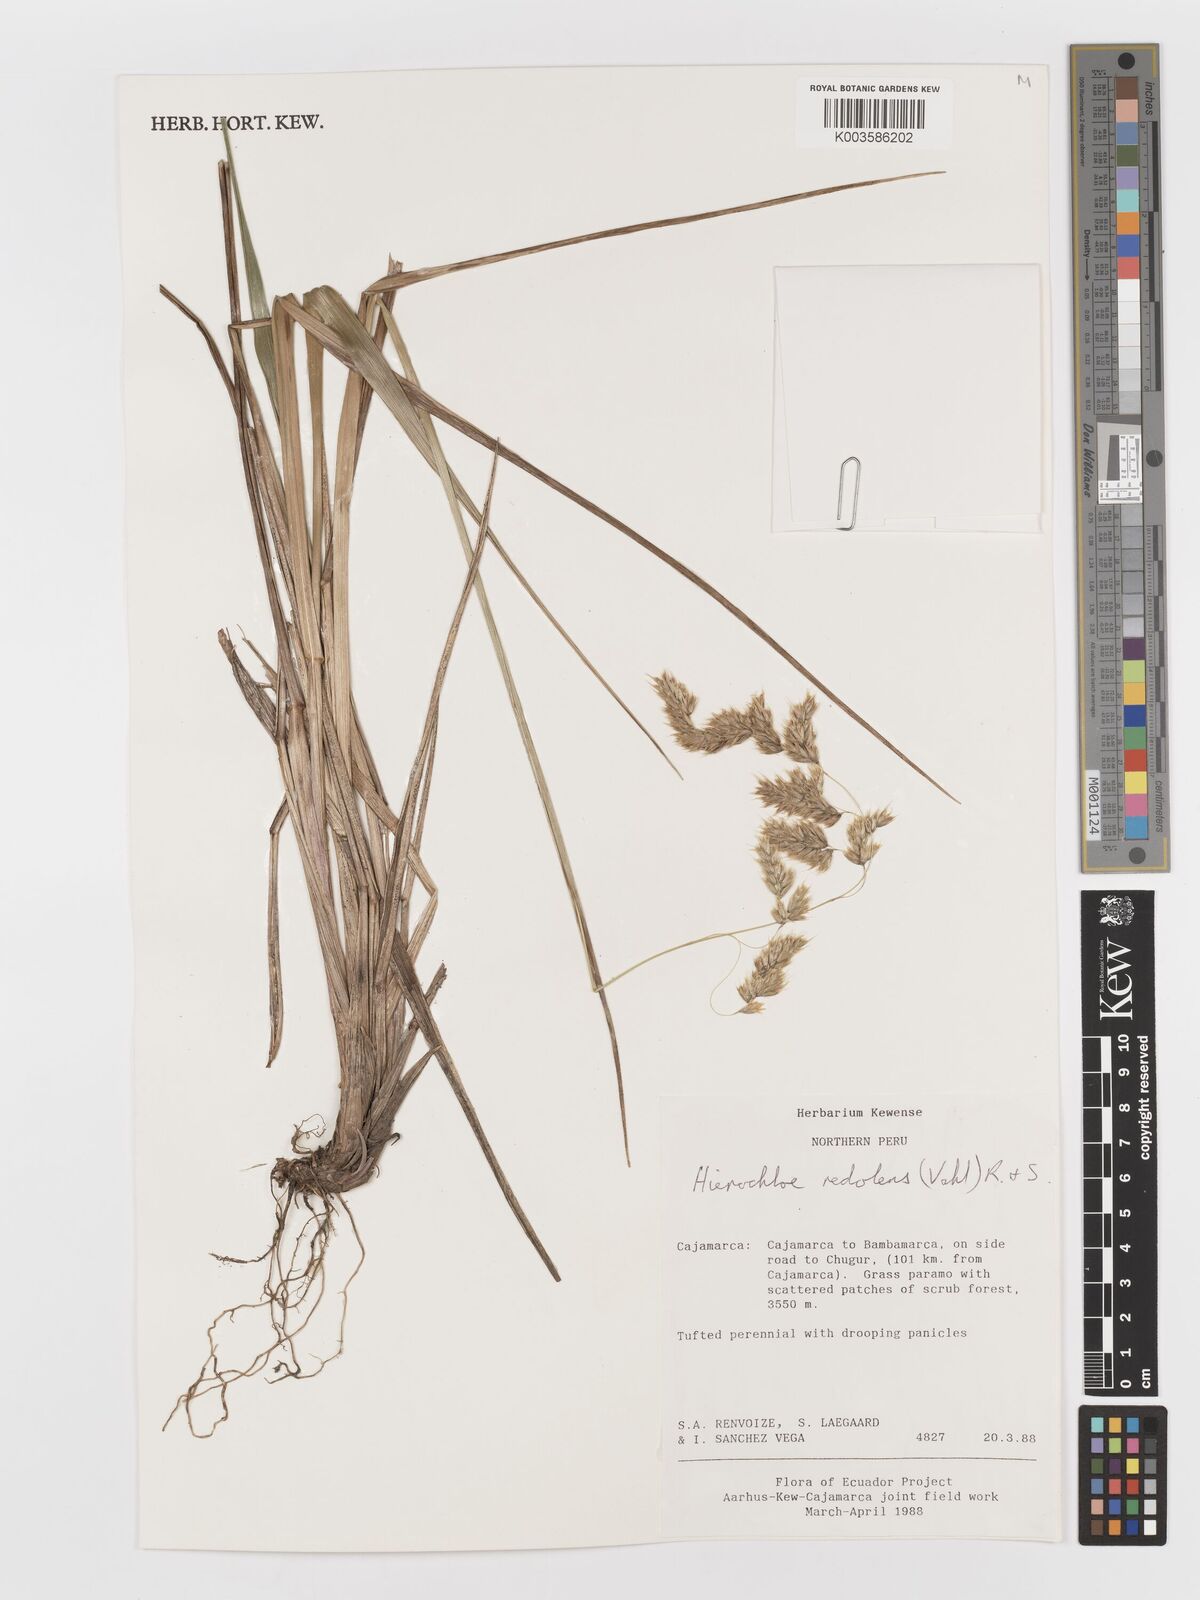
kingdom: Plantae
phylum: Tracheophyta
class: Liliopsida
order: Poales
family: Poaceae
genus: Anthoxanthum
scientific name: Anthoxanthum redolens
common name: Sweet holy grass
